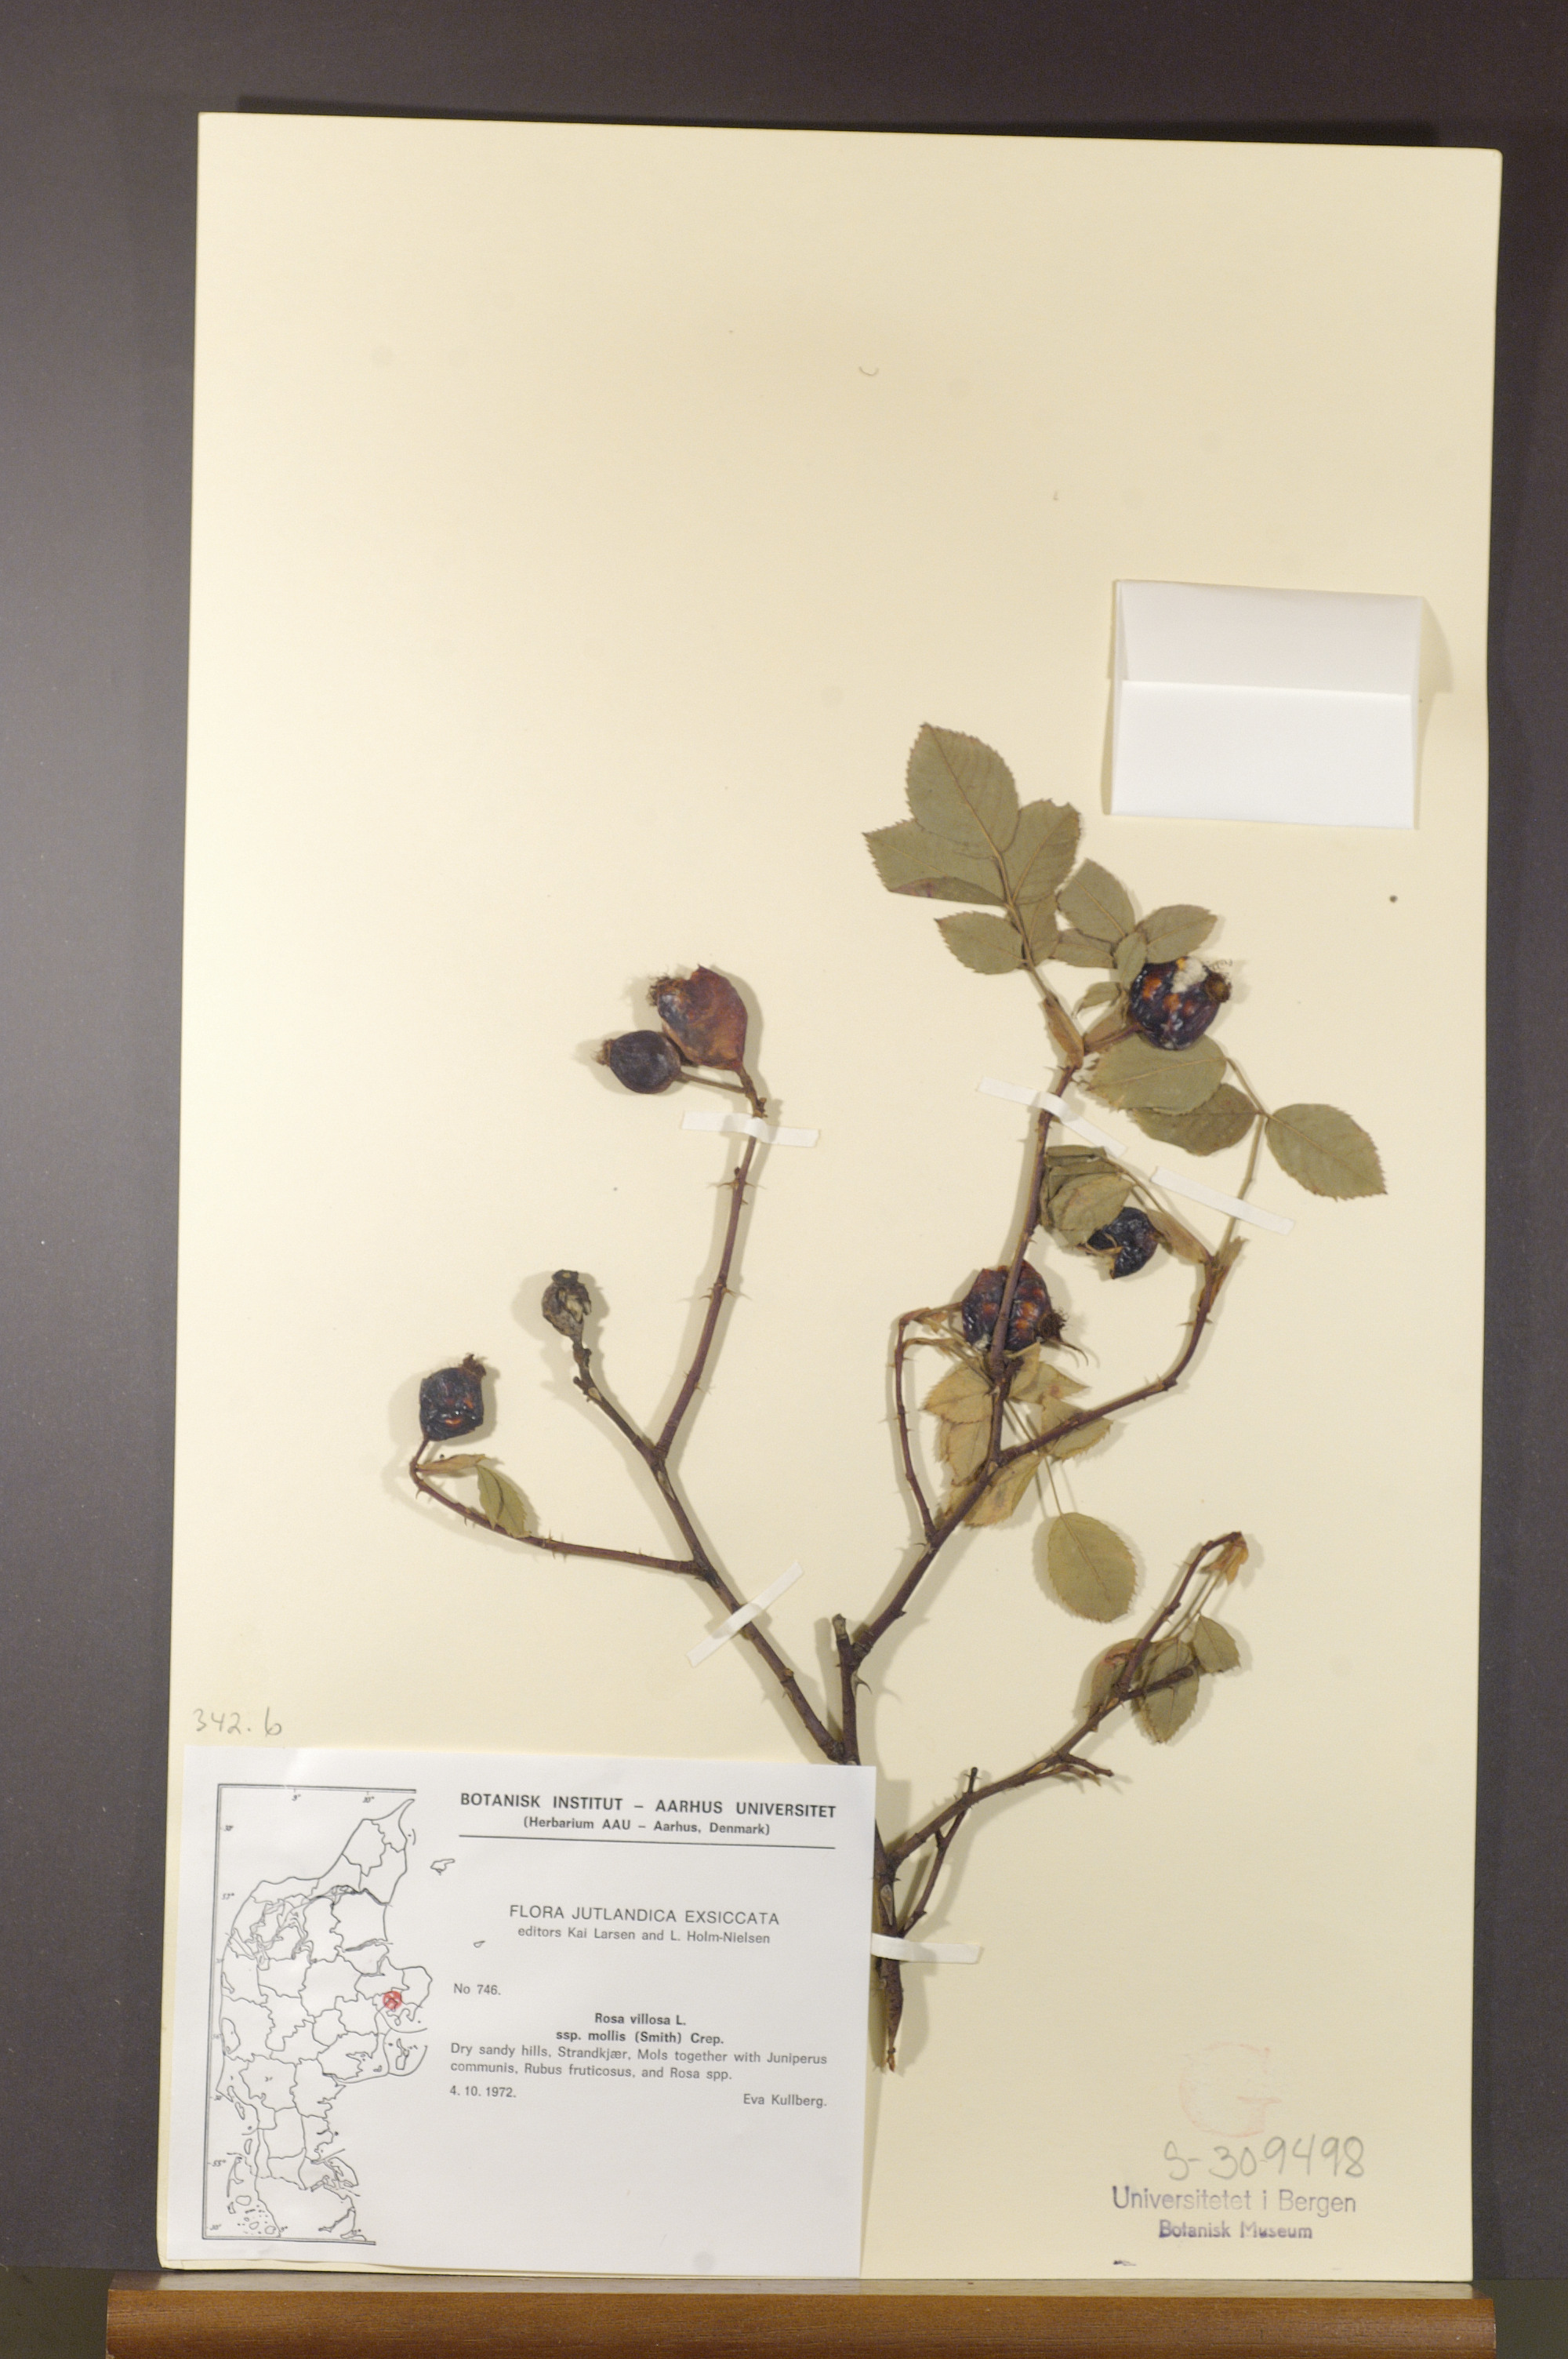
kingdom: Plantae
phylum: Tracheophyta
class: Magnoliopsida
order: Rosales
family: Rosaceae
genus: Rosa
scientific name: Rosa mollis
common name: Rose
